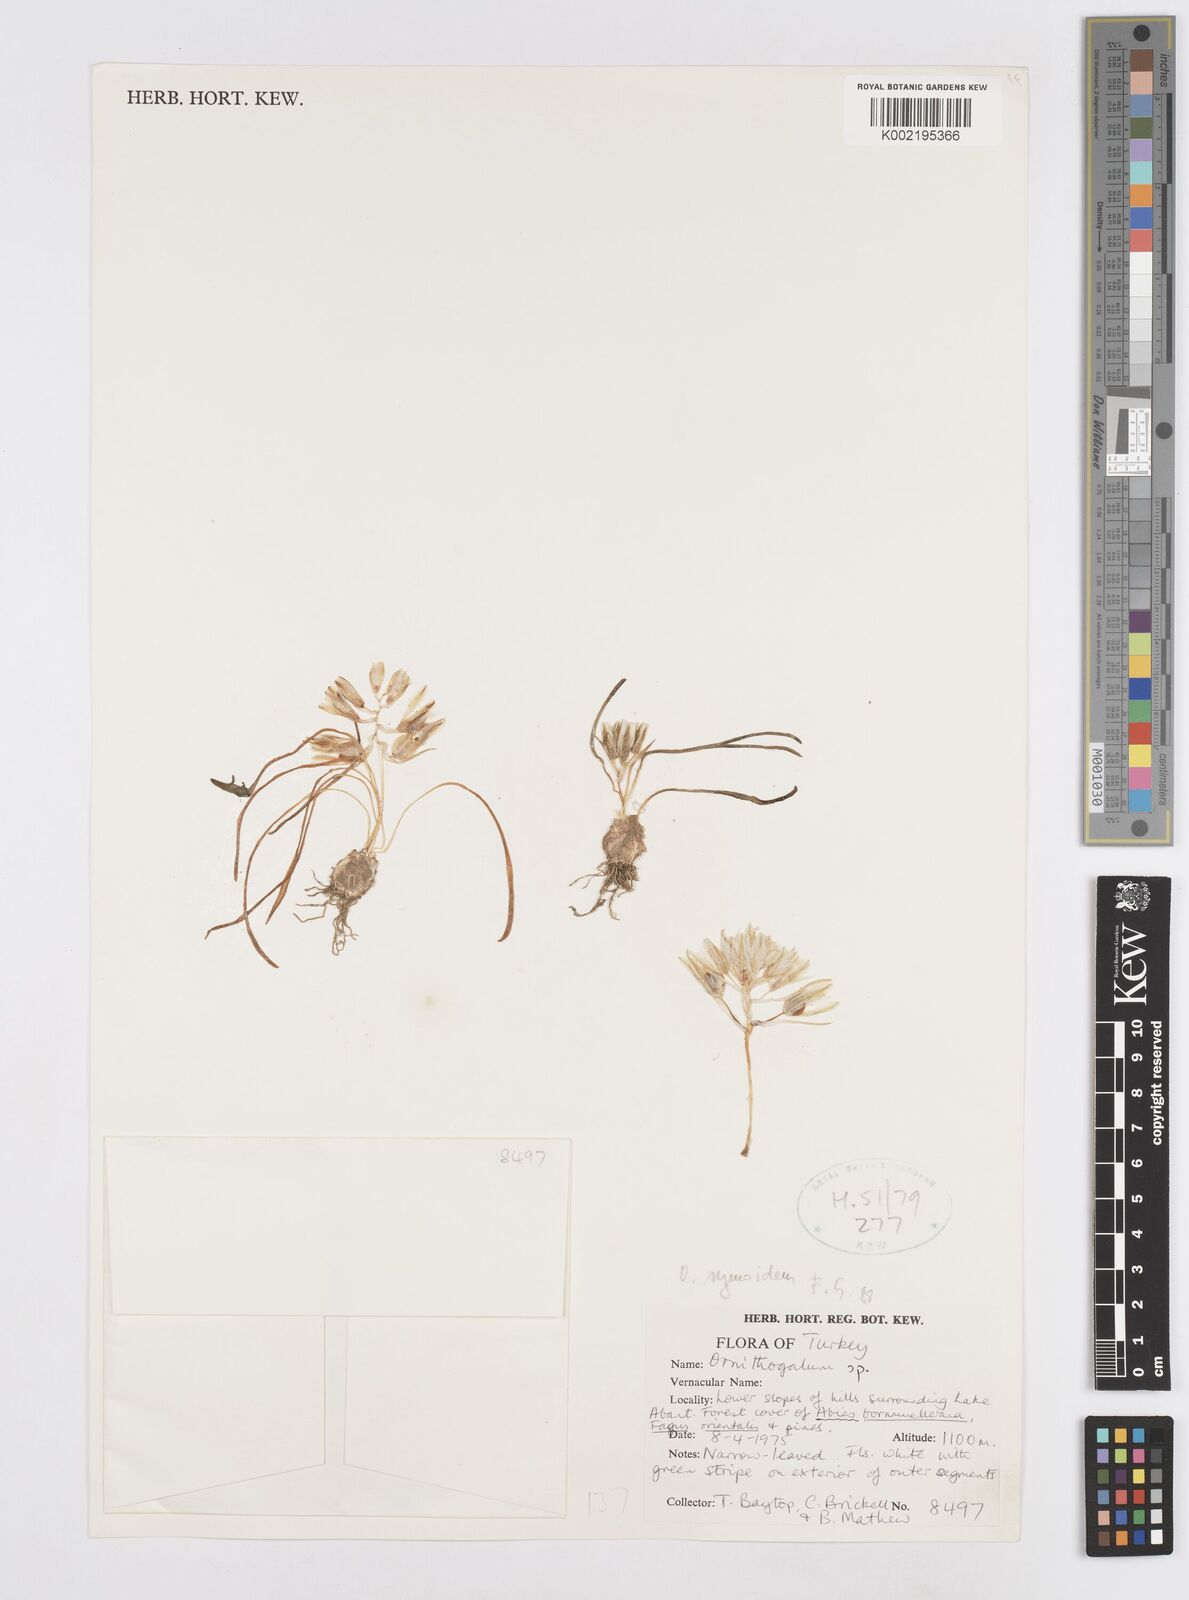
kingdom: Plantae
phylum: Tracheophyta
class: Liliopsida
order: Asparagales
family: Asparagaceae
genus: Ornithogalum
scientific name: Ornithogalum sigmoideum
